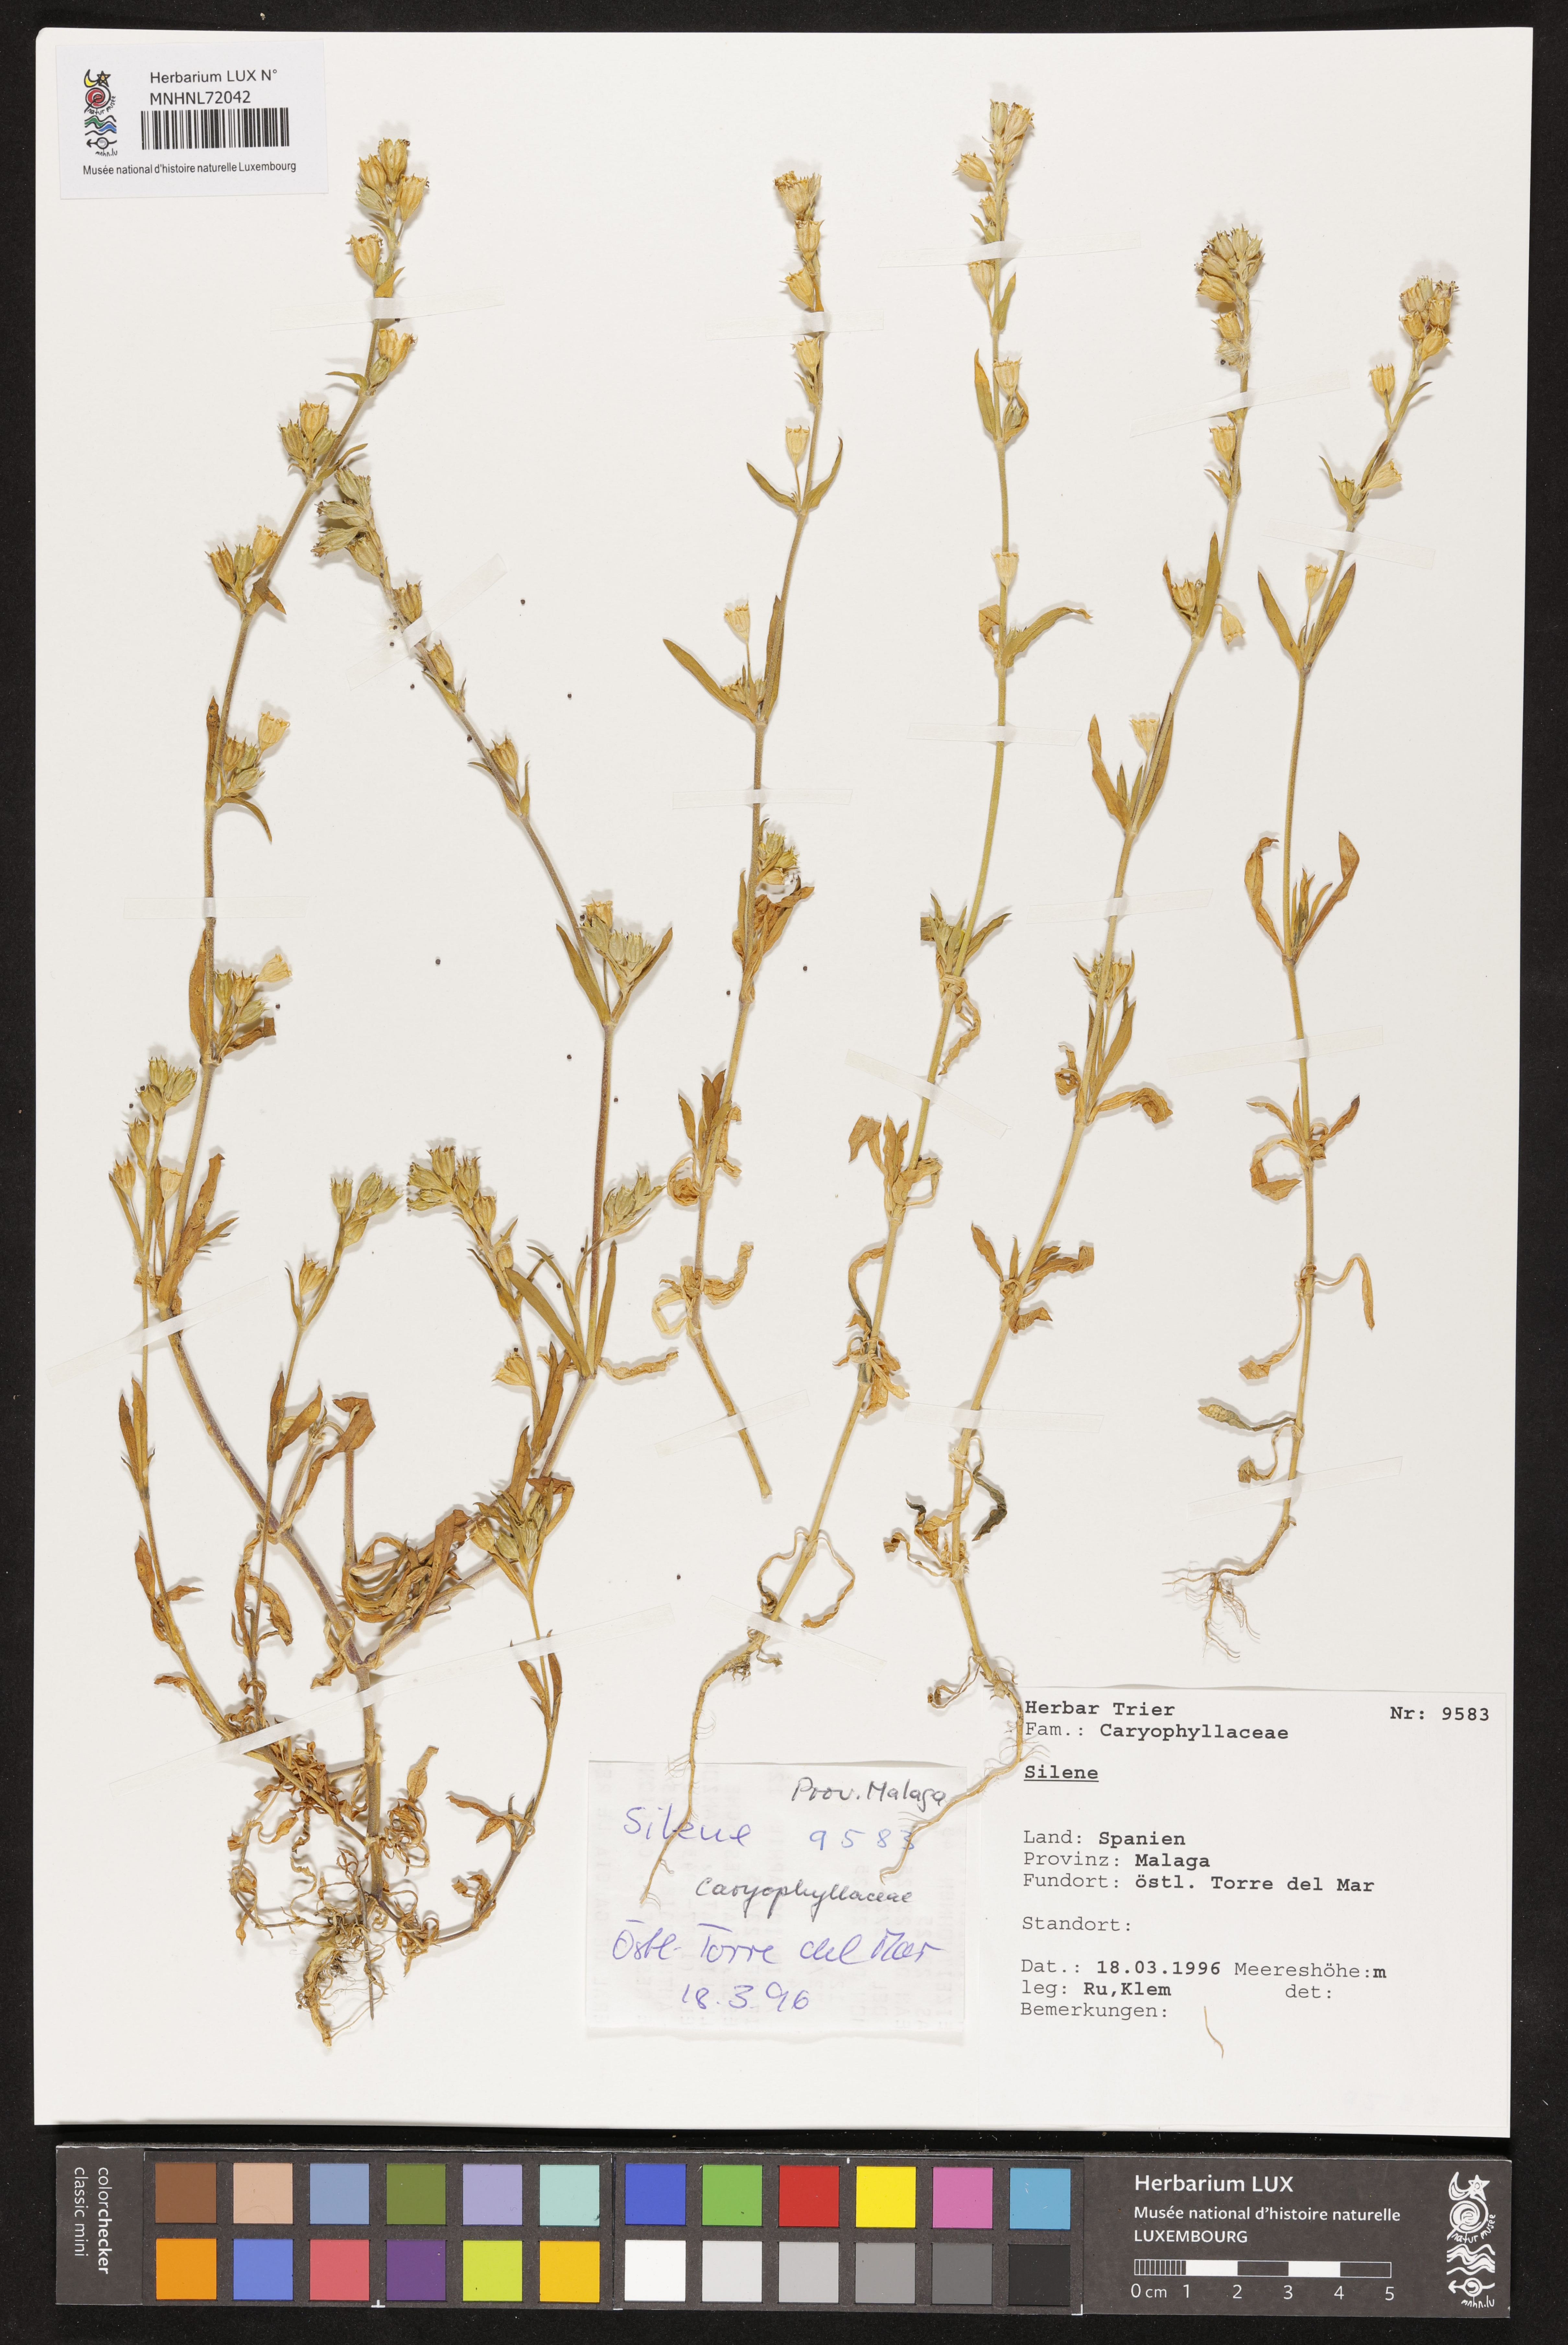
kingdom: Plantae
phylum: Tracheophyta
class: Magnoliopsida
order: Caryophyllales
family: Caryophyllaceae
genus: Silene
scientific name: Silene
